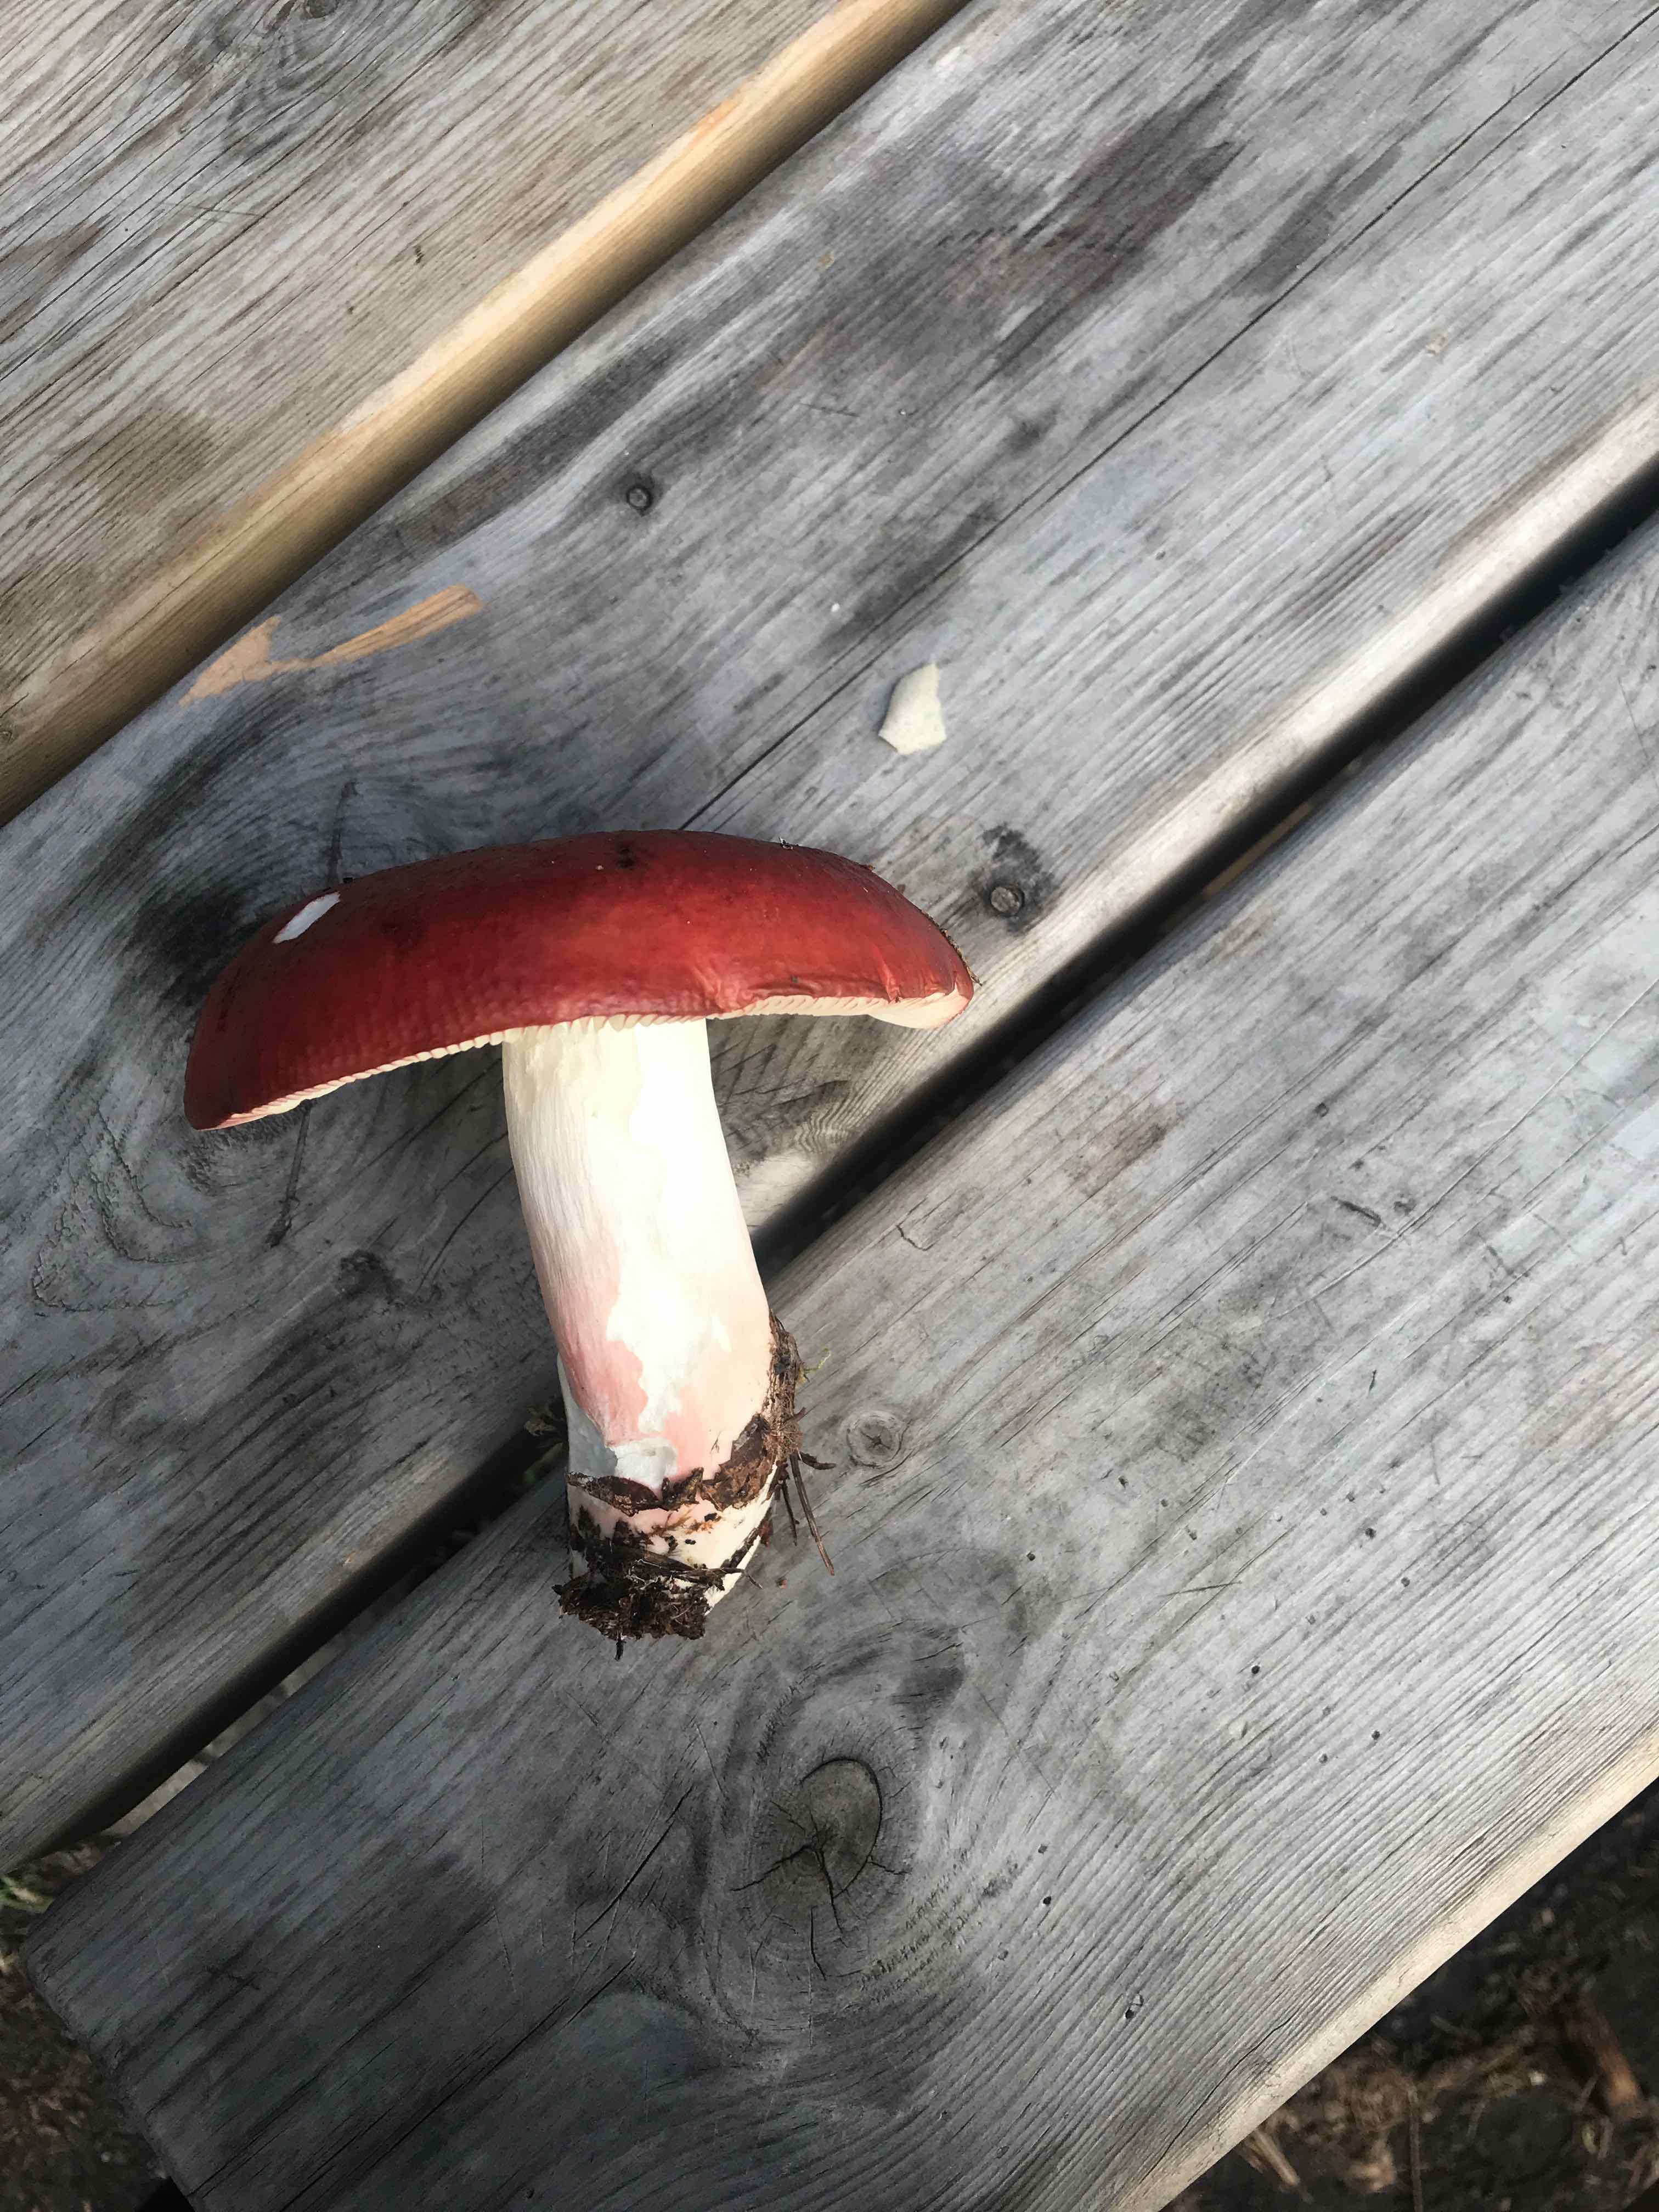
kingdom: Fungi
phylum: Basidiomycota
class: Agaricomycetes
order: Russulales
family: Russulaceae
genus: Russula
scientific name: Russula
